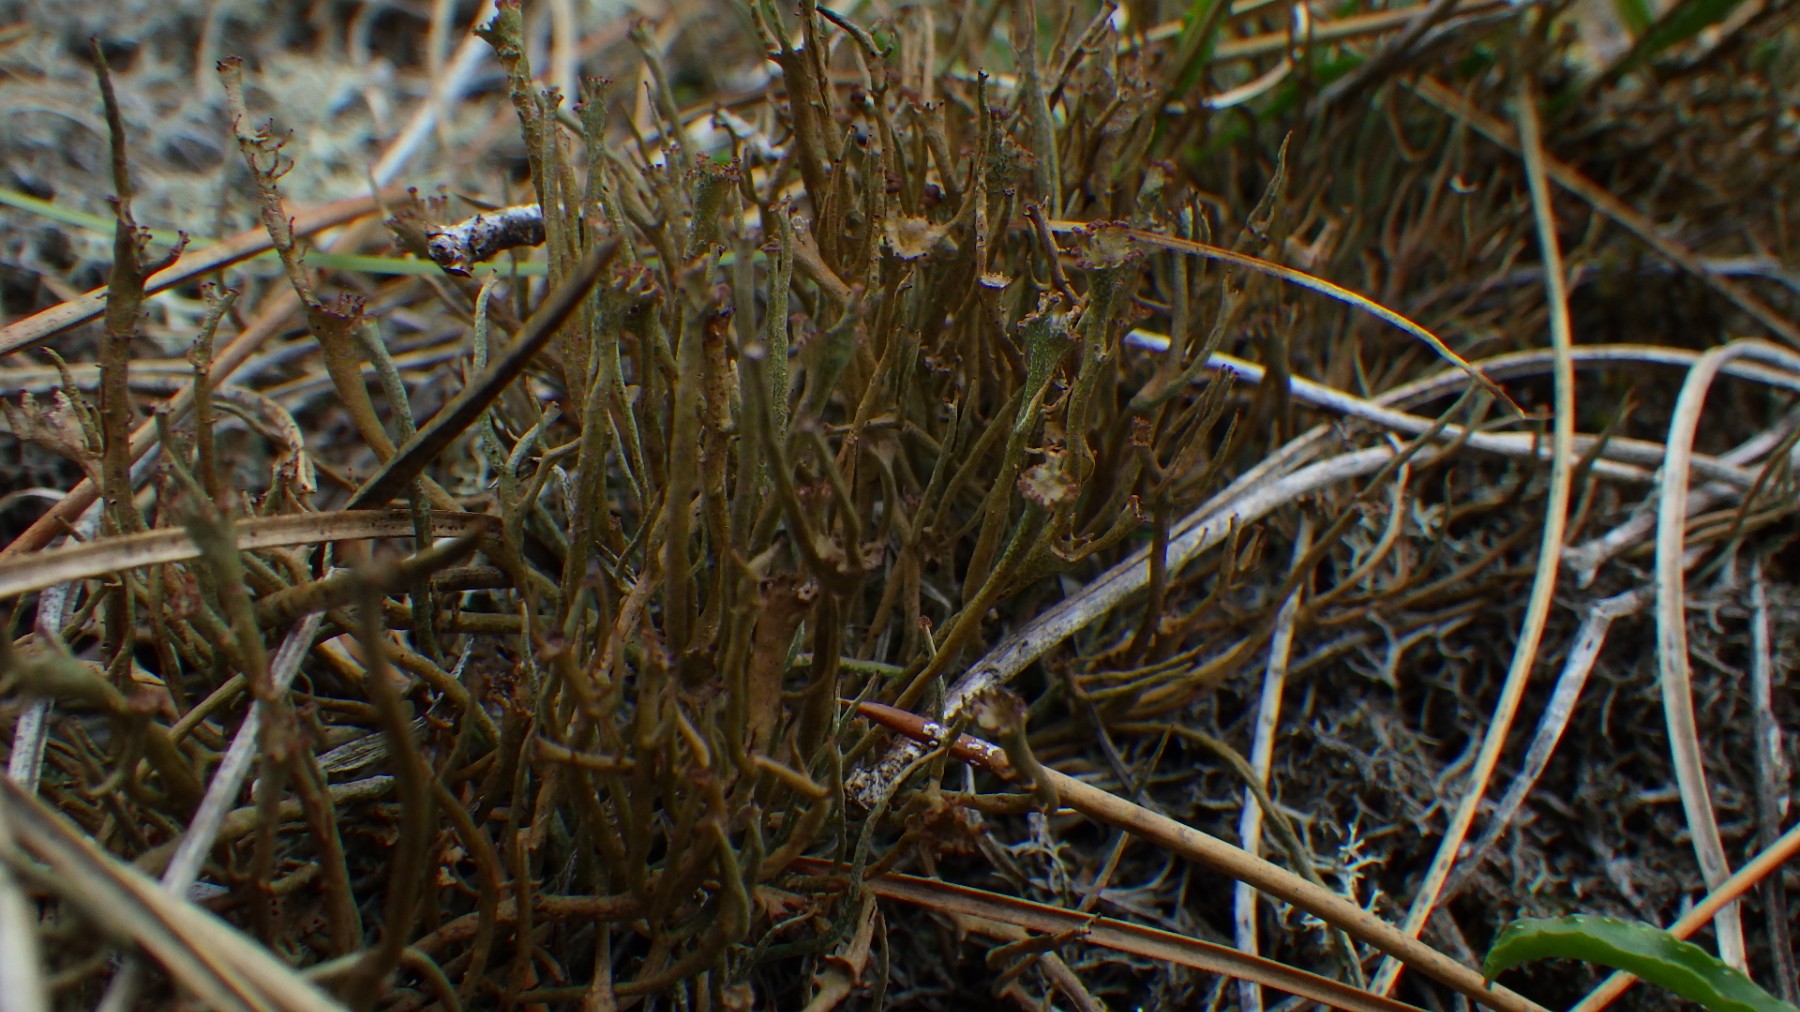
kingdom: Fungi
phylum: Ascomycota
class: Lecanoromycetes
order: Lecanorales
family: Cladoniaceae
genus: Cladonia
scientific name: Cladonia gracilis
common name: slank bægerlav
